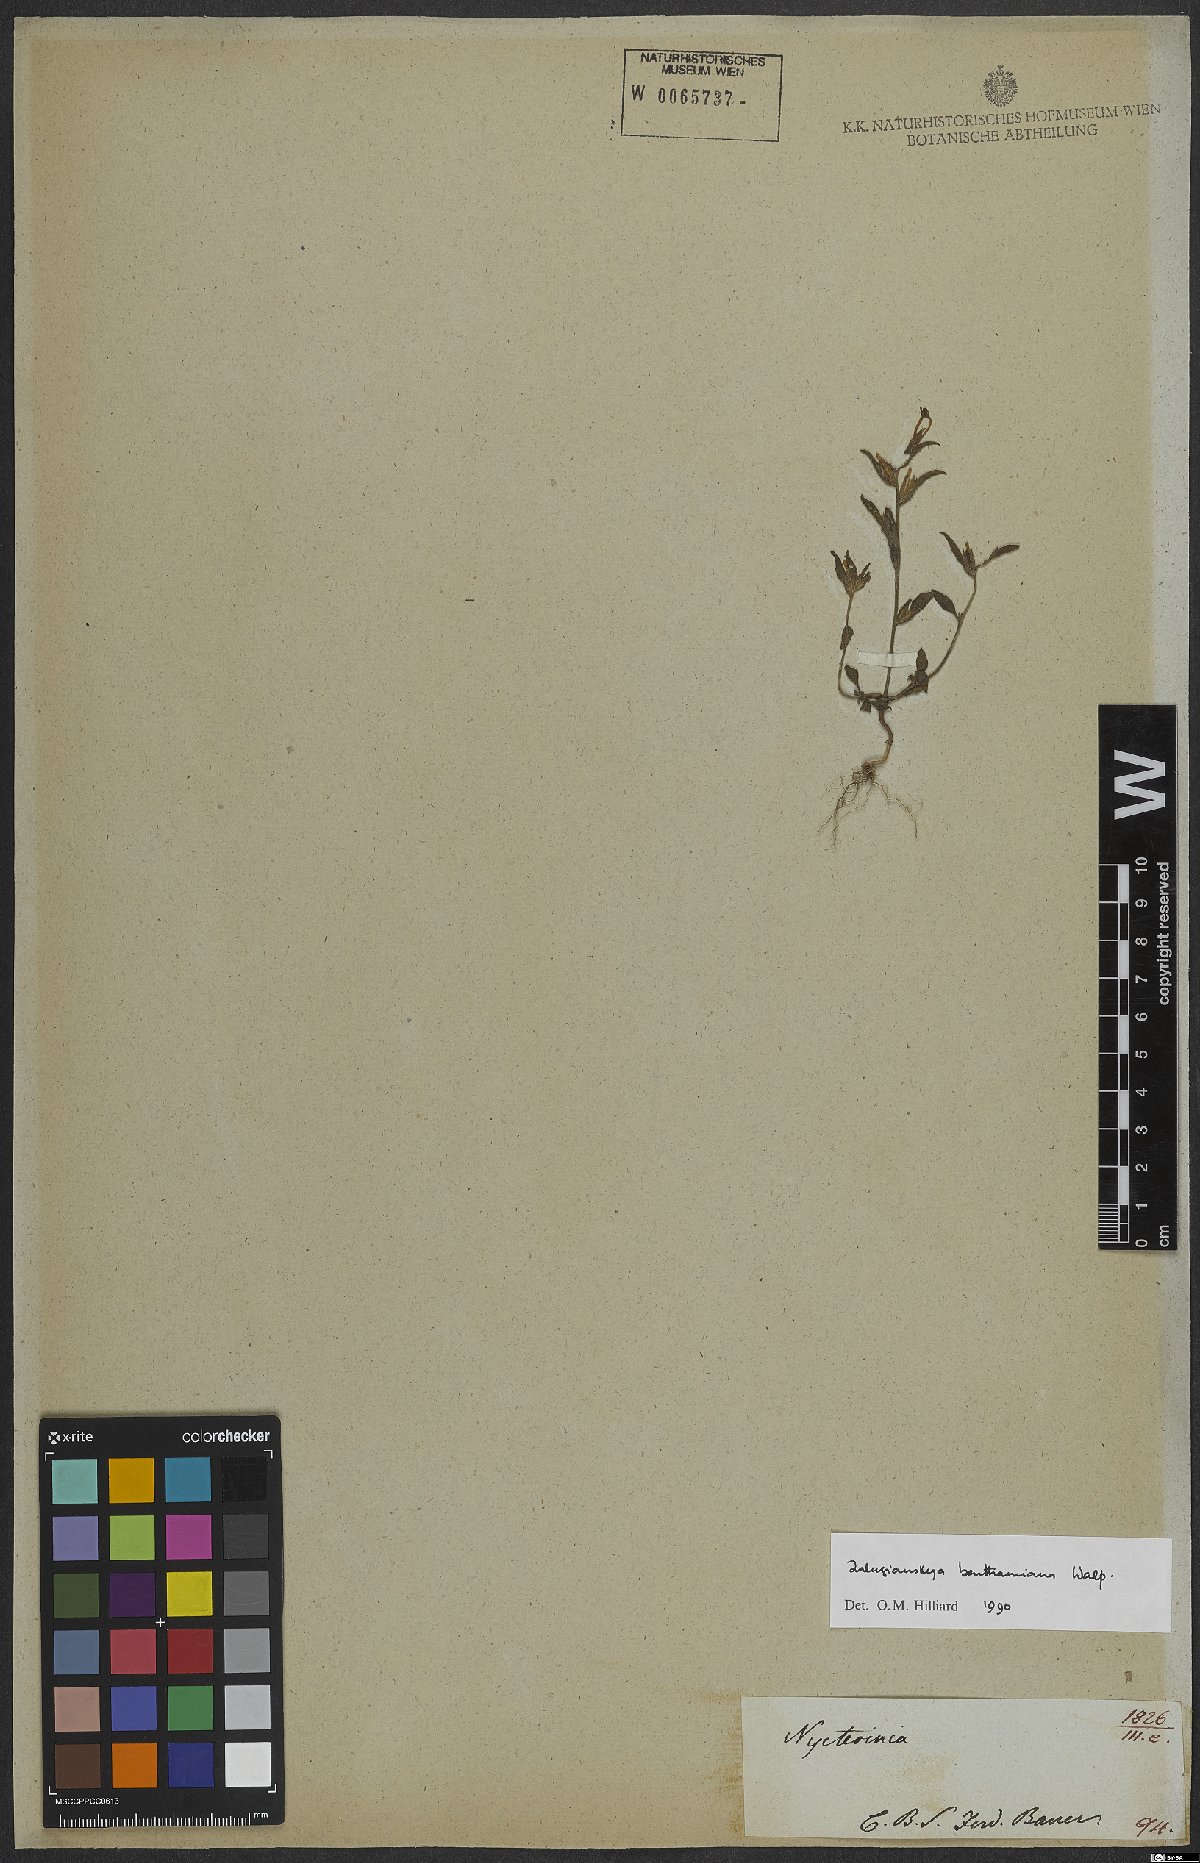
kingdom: Plantae
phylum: Tracheophyta
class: Magnoliopsida
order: Lamiales
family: Scrophulariaceae
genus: Zaluzianskya
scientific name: Zaluzianskya benthamiana
